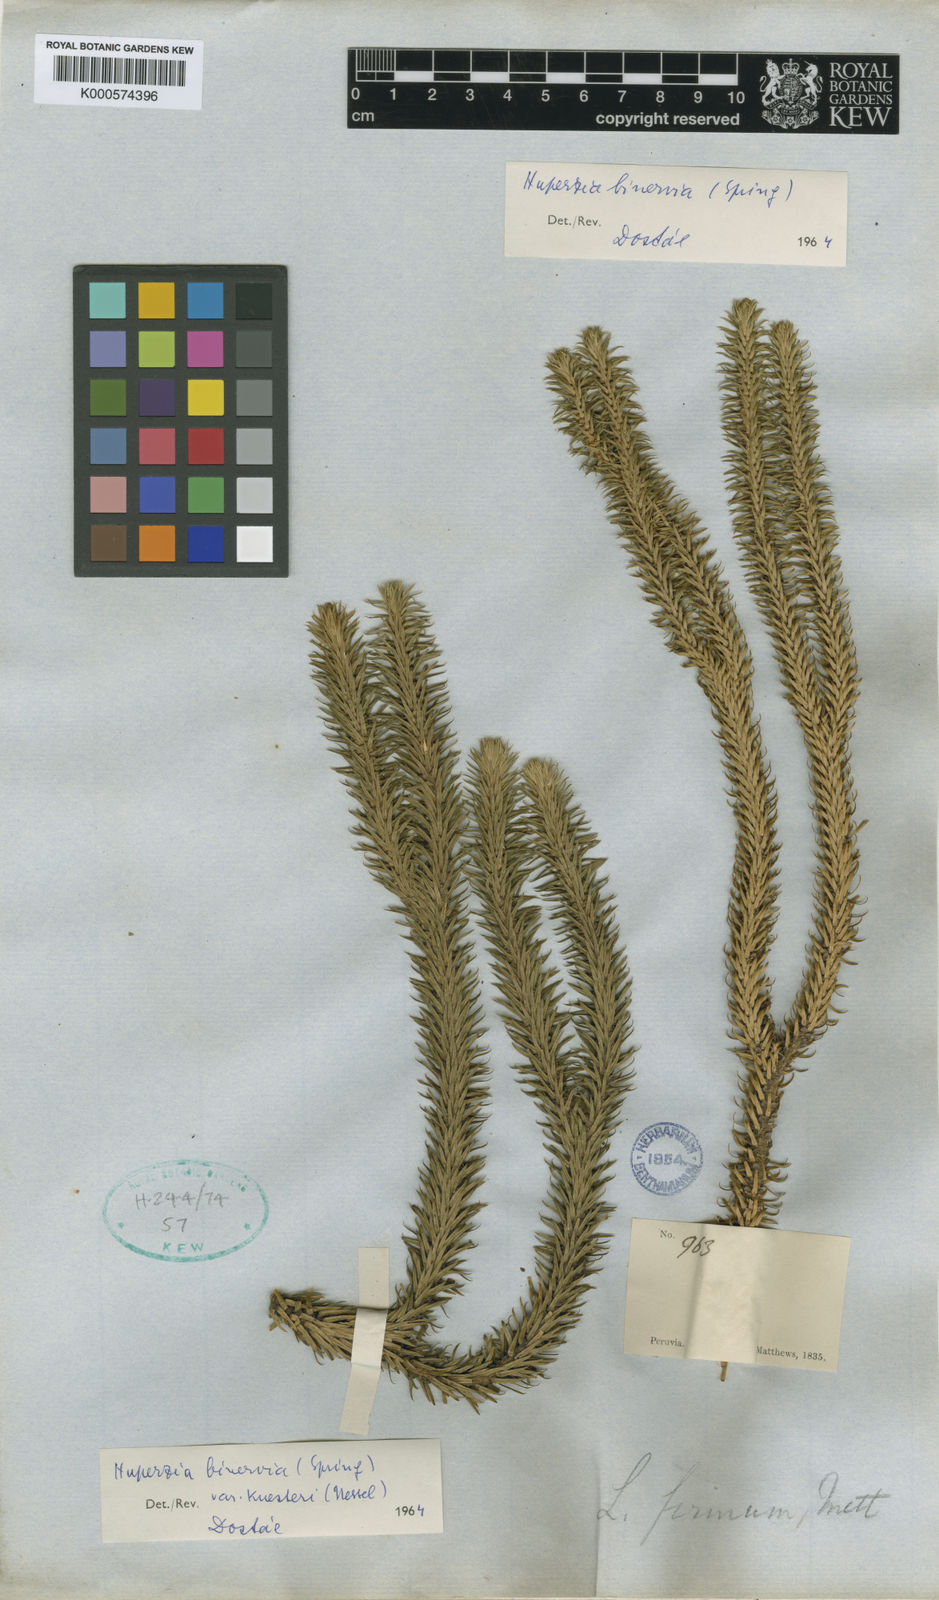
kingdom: Plantae
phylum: Tracheophyta
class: Lycopodiopsida
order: Lycopodiales
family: Lycopodiaceae
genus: Phlegmariurus
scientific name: Phlegmariurus binervius
